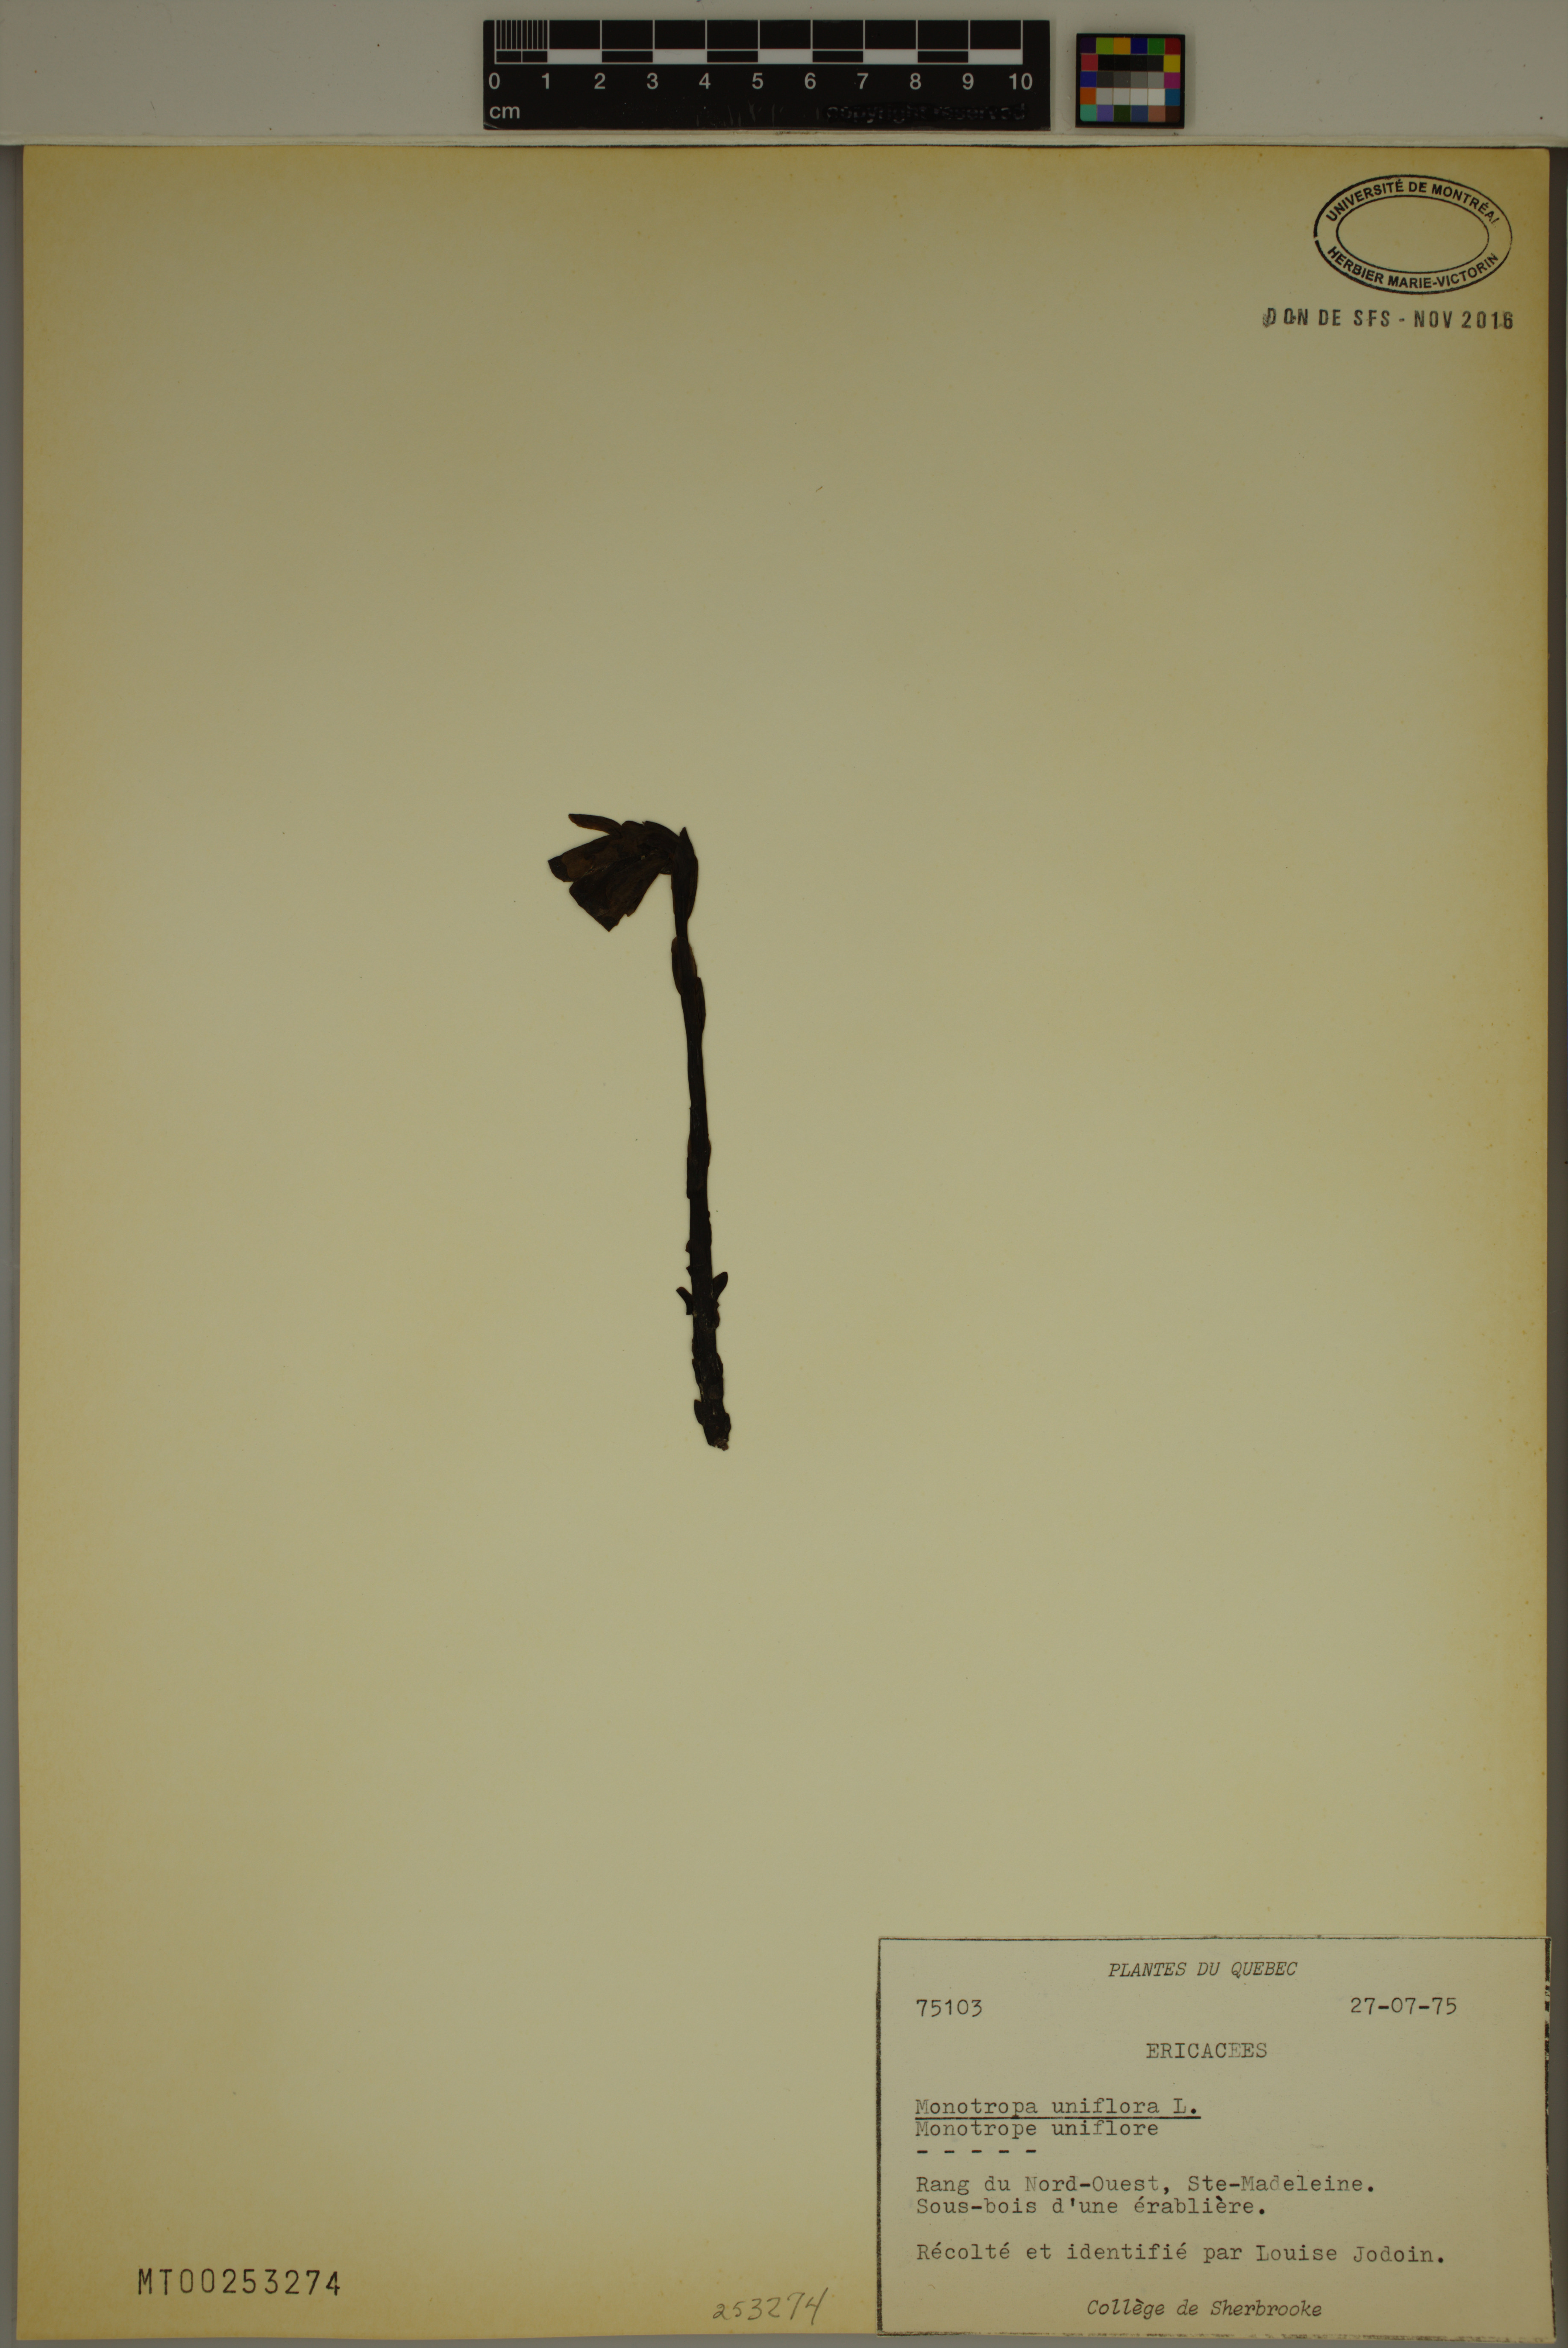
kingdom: Plantae
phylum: Tracheophyta
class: Magnoliopsida
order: Ericales
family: Ericaceae
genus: Monotropa
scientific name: Monotropa uniflora
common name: Convulsion root
